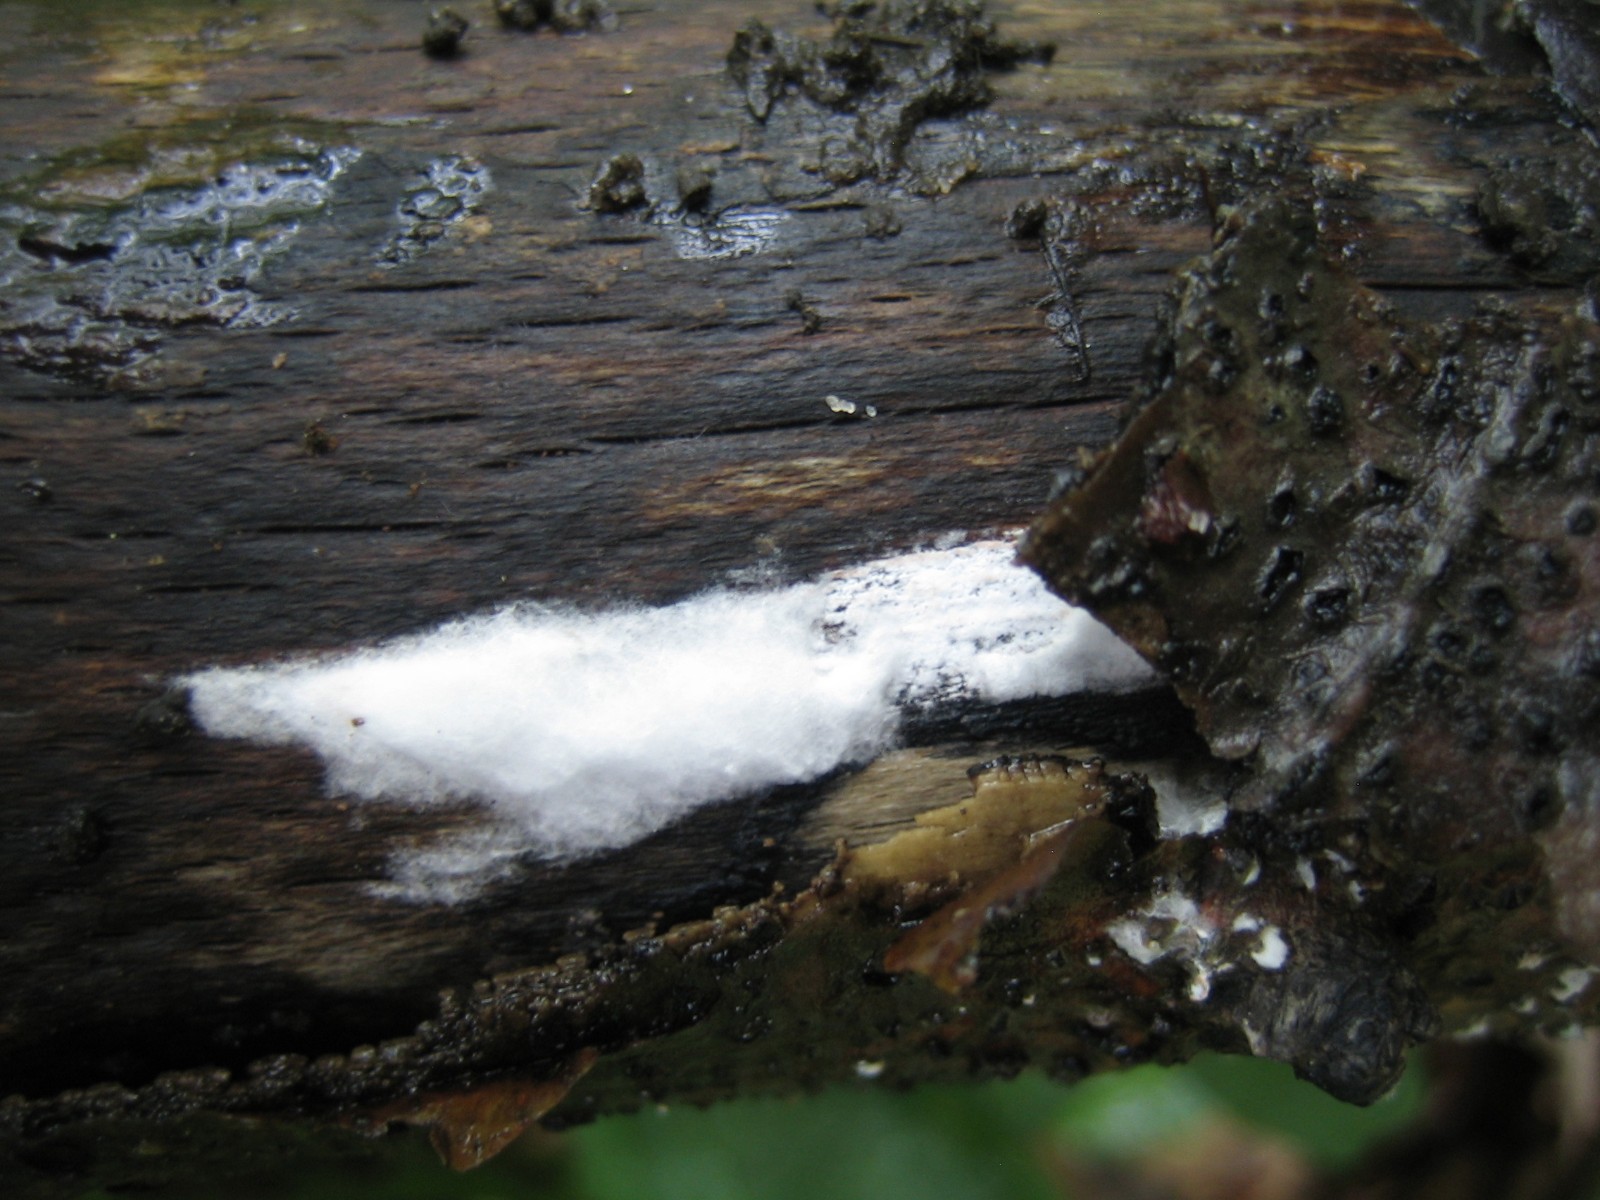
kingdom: Fungi
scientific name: Fungi
